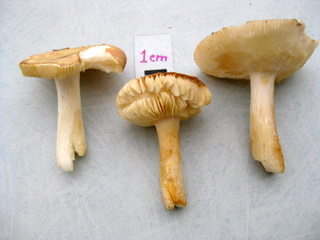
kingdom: Fungi
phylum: Basidiomycota
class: Agaricomycetes
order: Russulales
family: Russulaceae
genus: Russula
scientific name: Russula versicolor
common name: foranderlig skørhat
